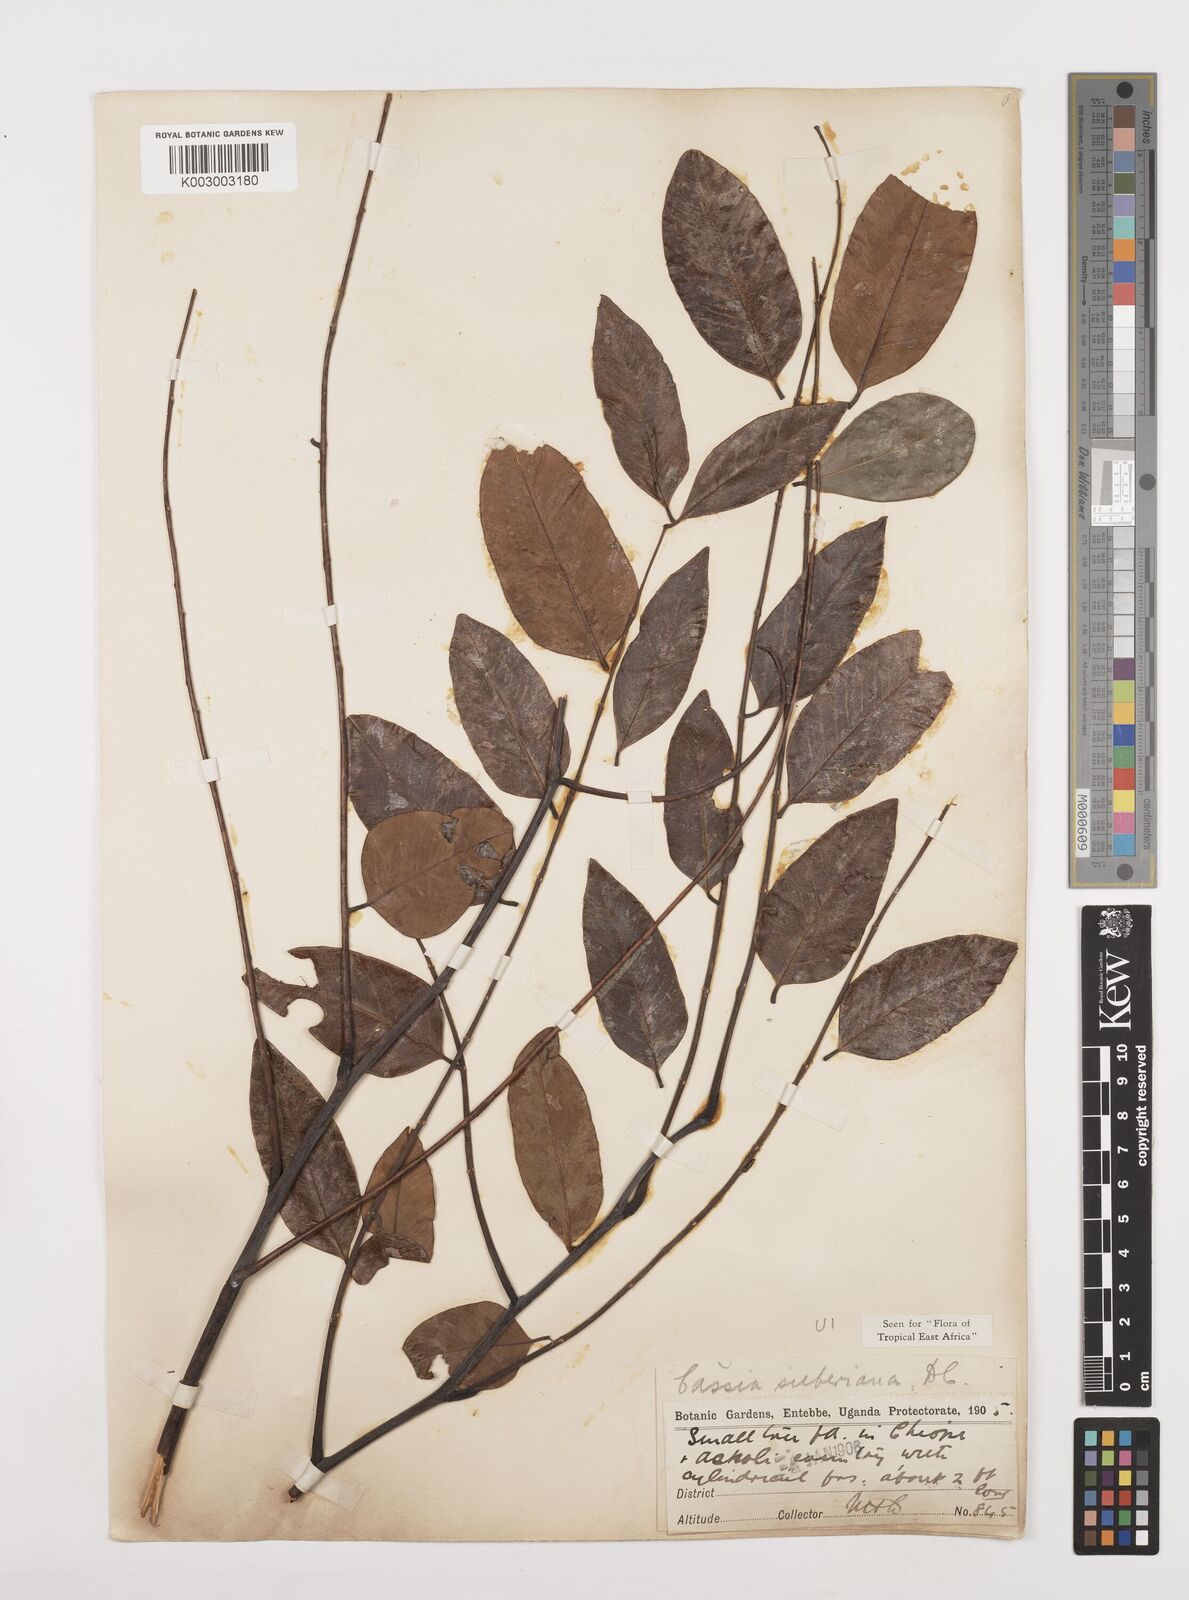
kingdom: Plantae
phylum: Tracheophyta
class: Magnoliopsida
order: Fabales
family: Fabaceae
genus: Cassia
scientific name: Cassia sieberiana
